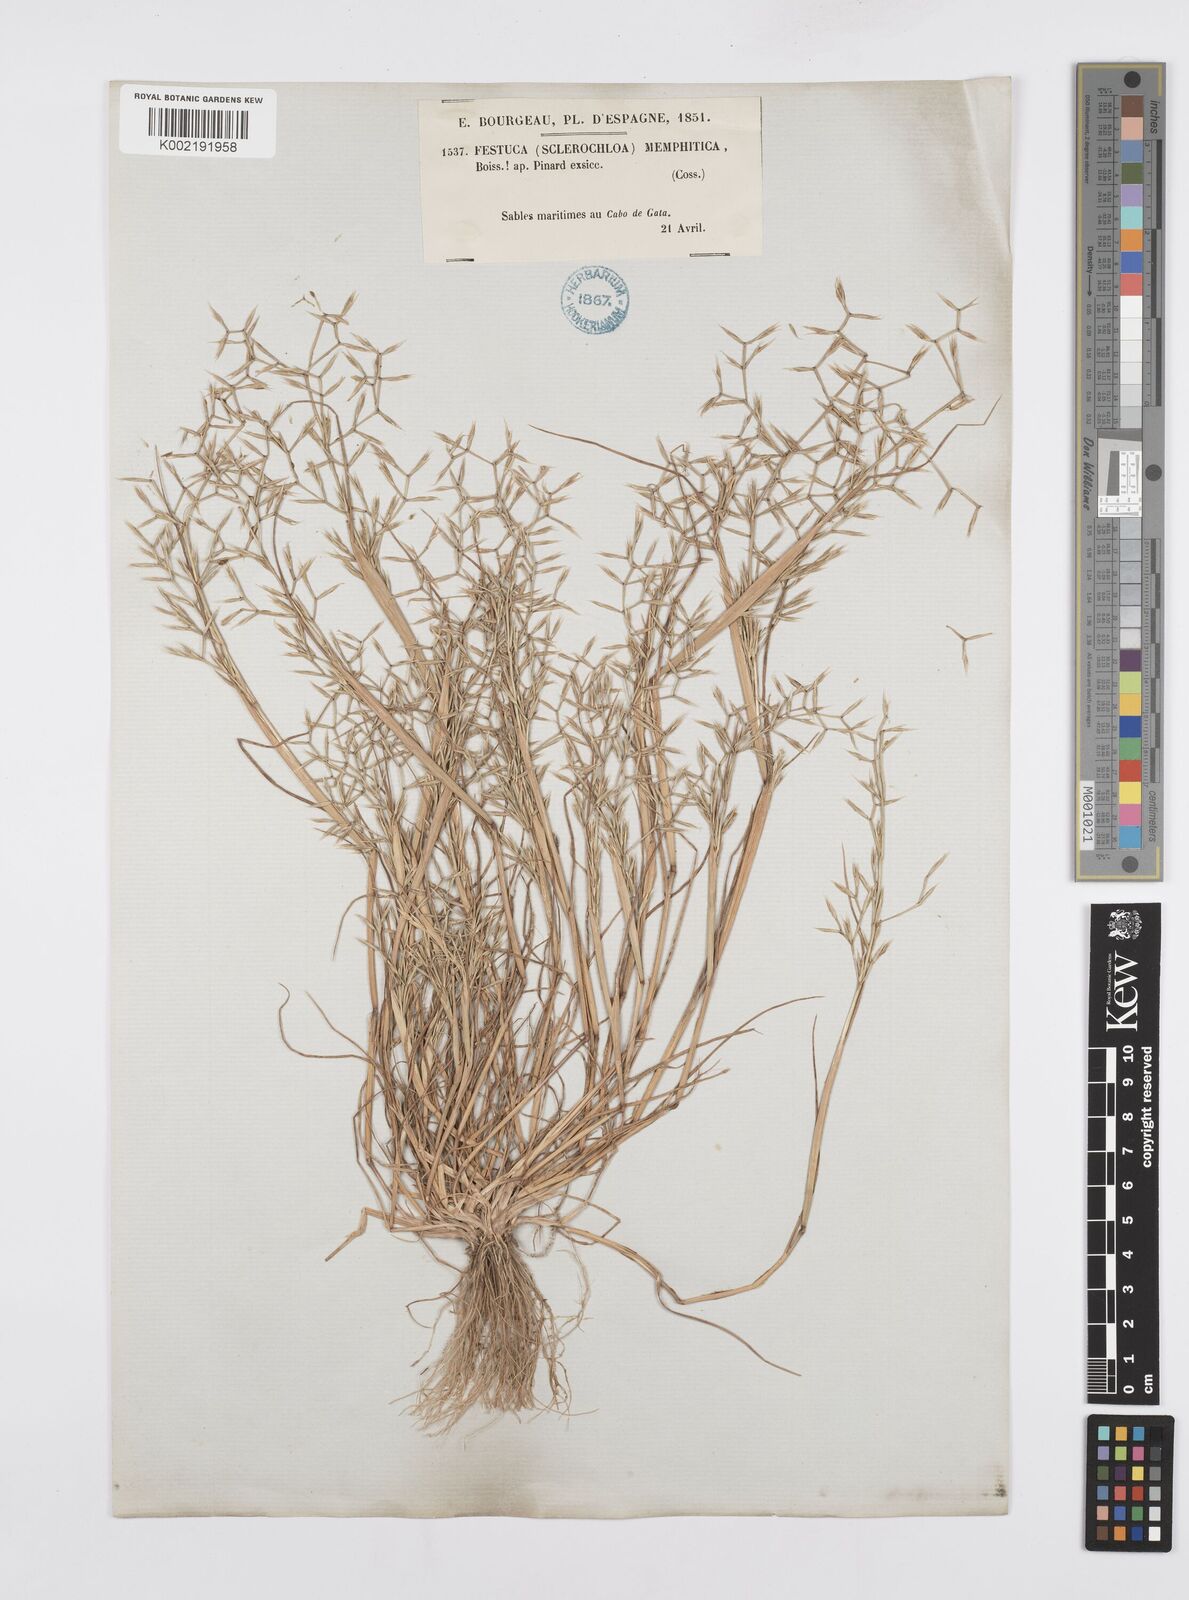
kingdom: Plantae
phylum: Tracheophyta
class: Liliopsida
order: Poales
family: Poaceae
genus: Cutandia
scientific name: Cutandia memphitica
